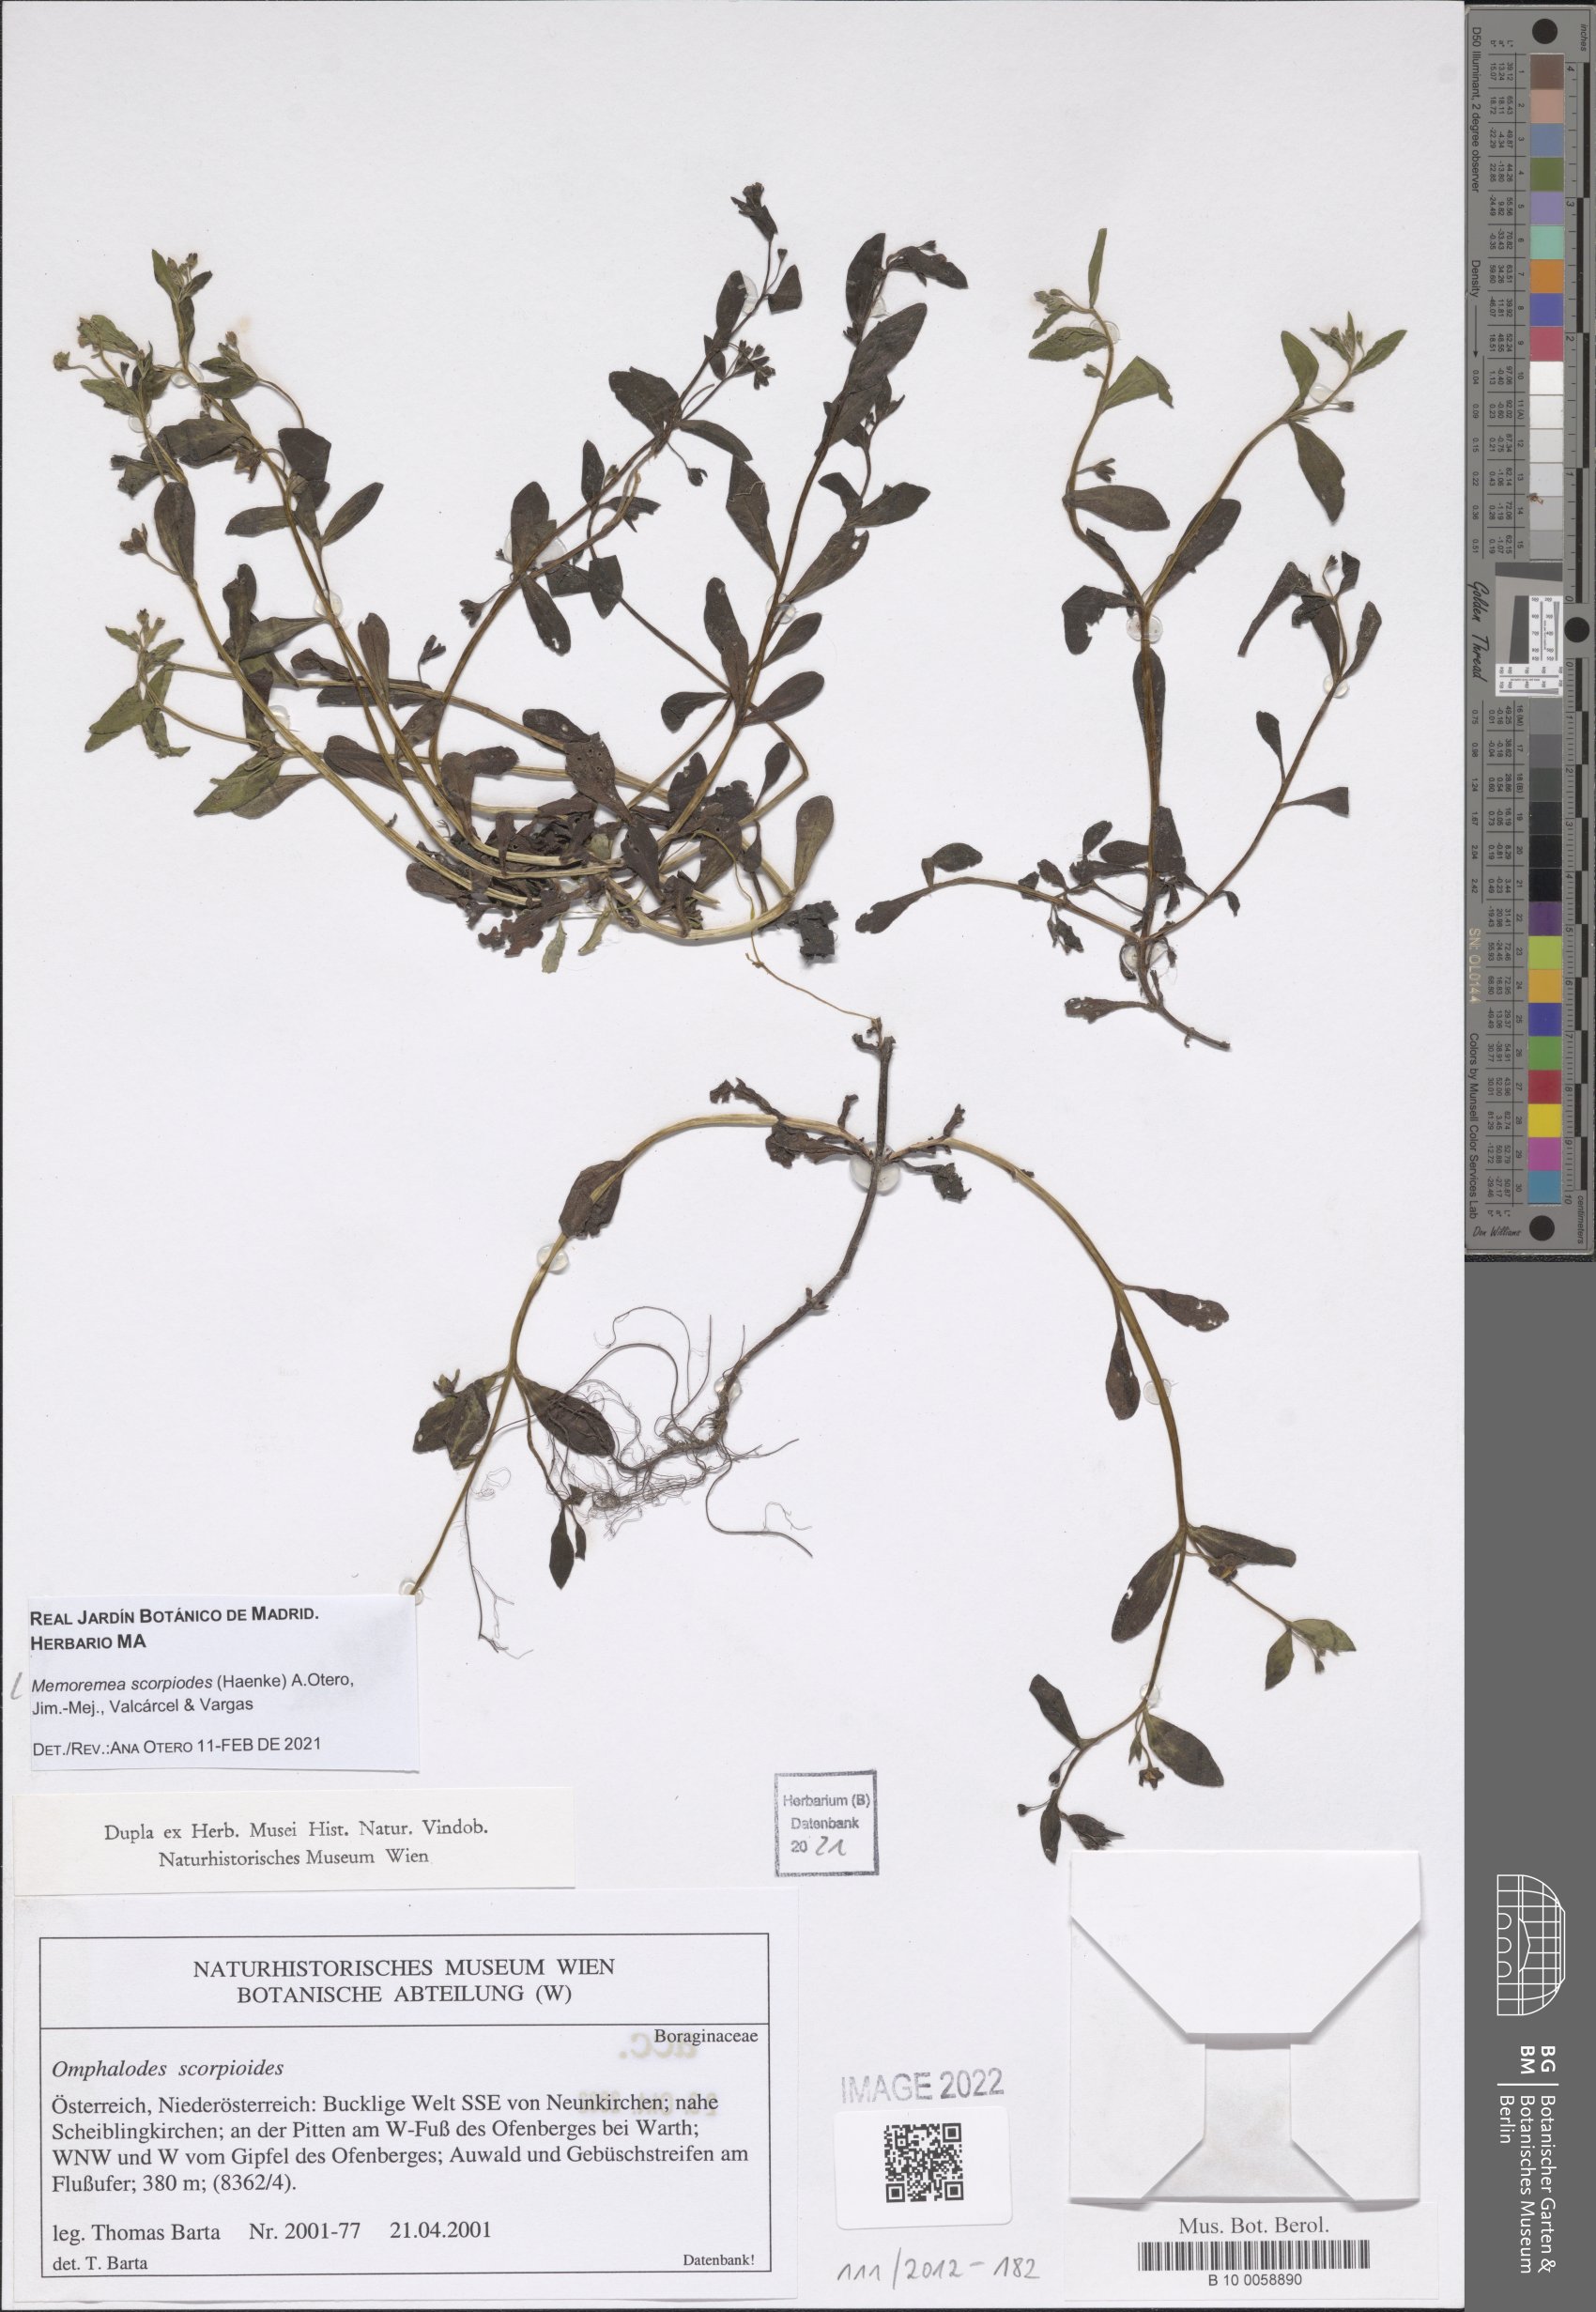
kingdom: Plantae
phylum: Tracheophyta
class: Magnoliopsida
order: Boraginales
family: Boraginaceae
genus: Memoremea
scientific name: Memoremea scorpioides
